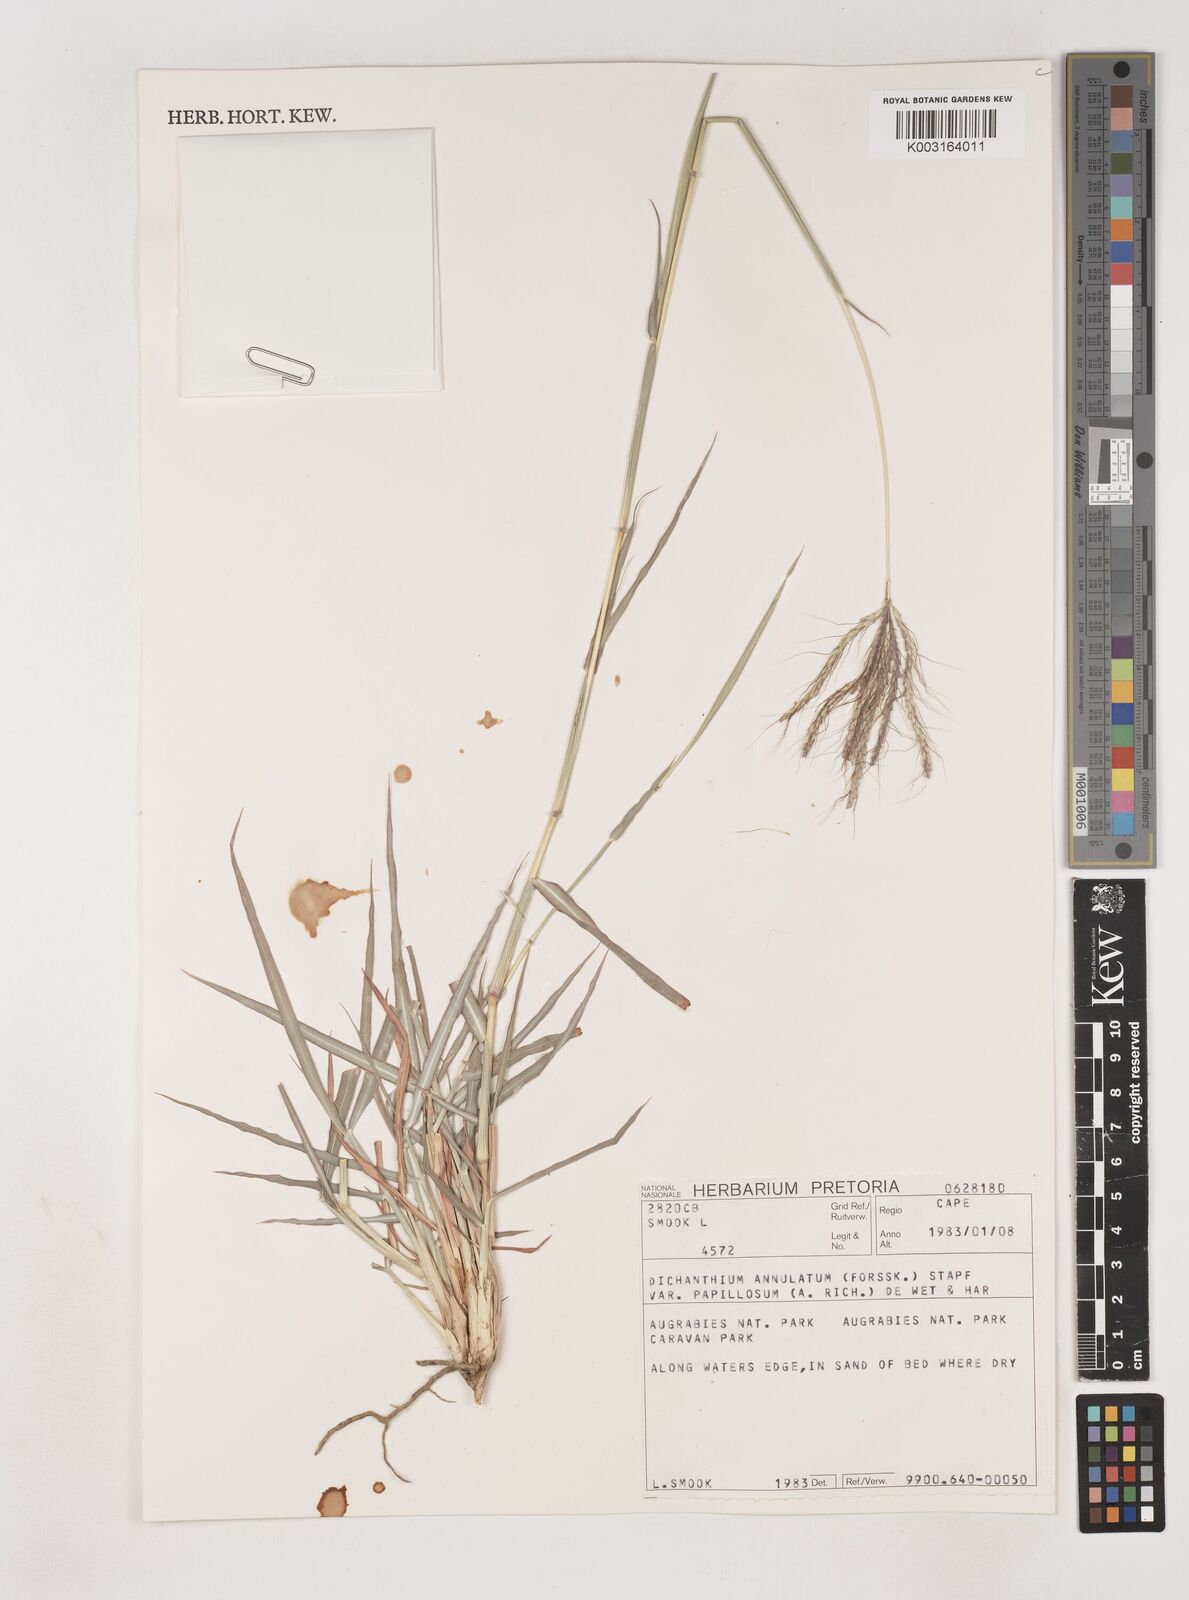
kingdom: Plantae
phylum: Tracheophyta
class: Liliopsida
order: Poales
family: Poaceae
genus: Dichanthium
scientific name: Dichanthium annulatum
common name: Kleberg's bluestem
